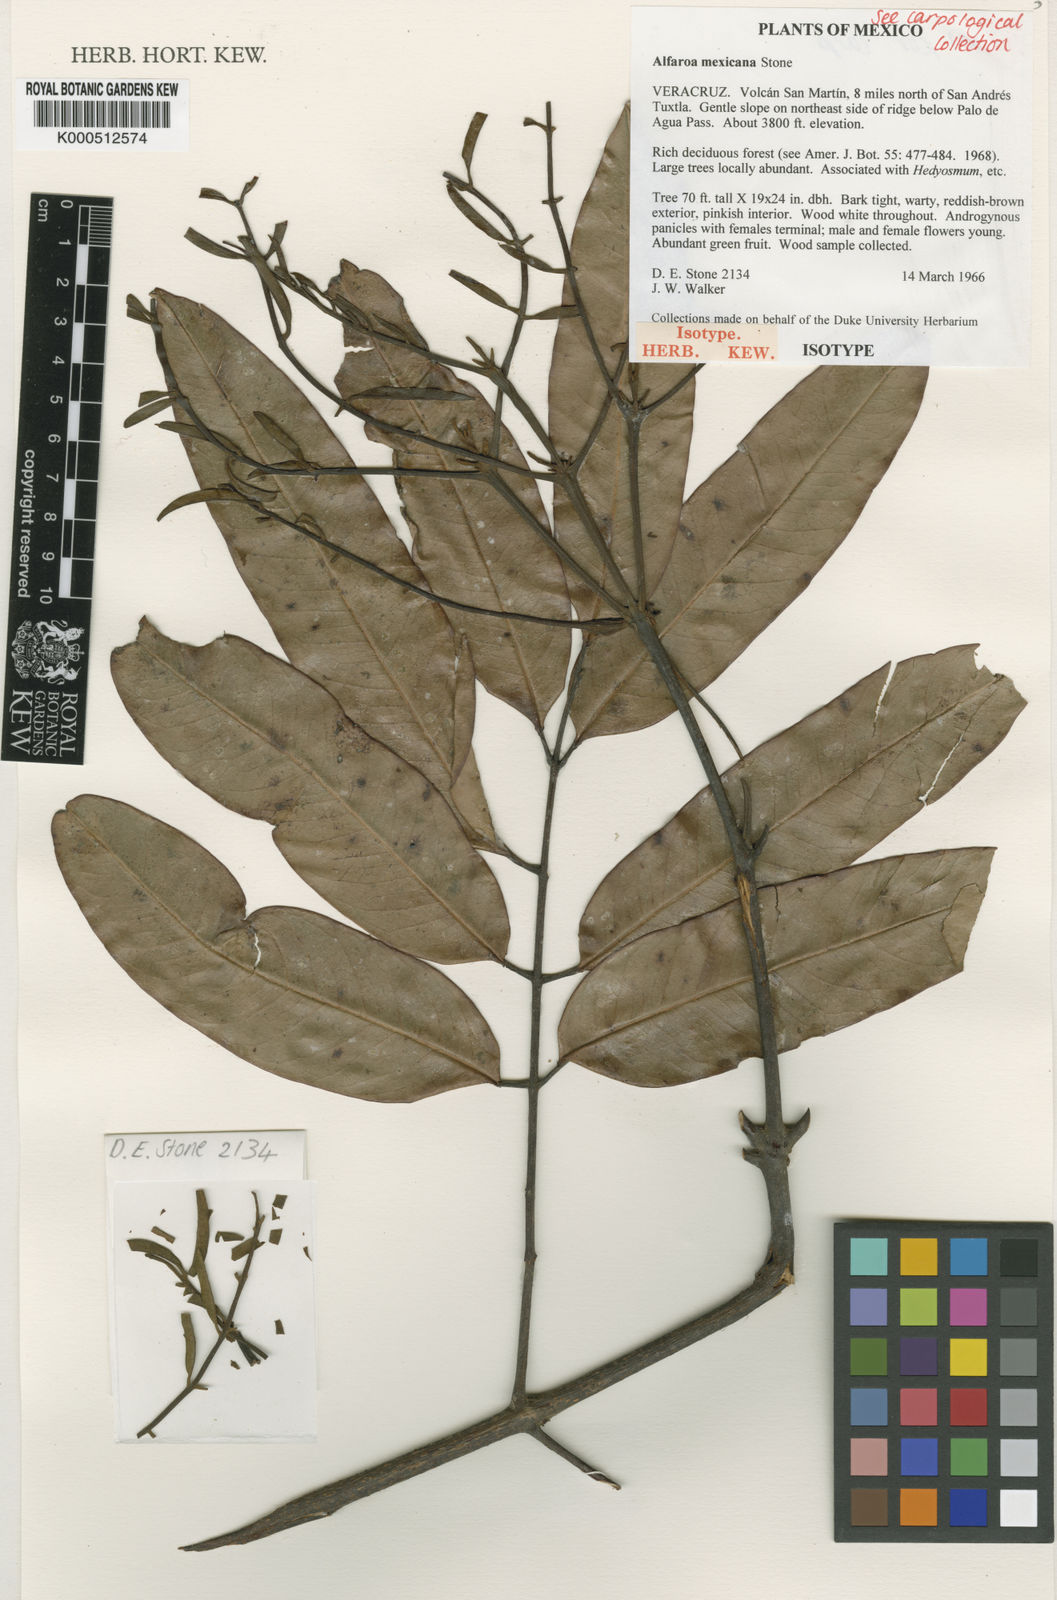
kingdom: Plantae
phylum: Tracheophyta
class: Magnoliopsida
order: Fagales
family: Juglandaceae
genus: Alfaroa
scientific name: Alfaroa mexicana
